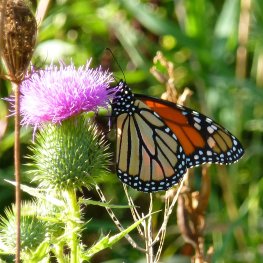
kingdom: Animalia
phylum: Arthropoda
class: Insecta
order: Lepidoptera
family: Nymphalidae
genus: Danaus
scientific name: Danaus plexippus
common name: Monarch
